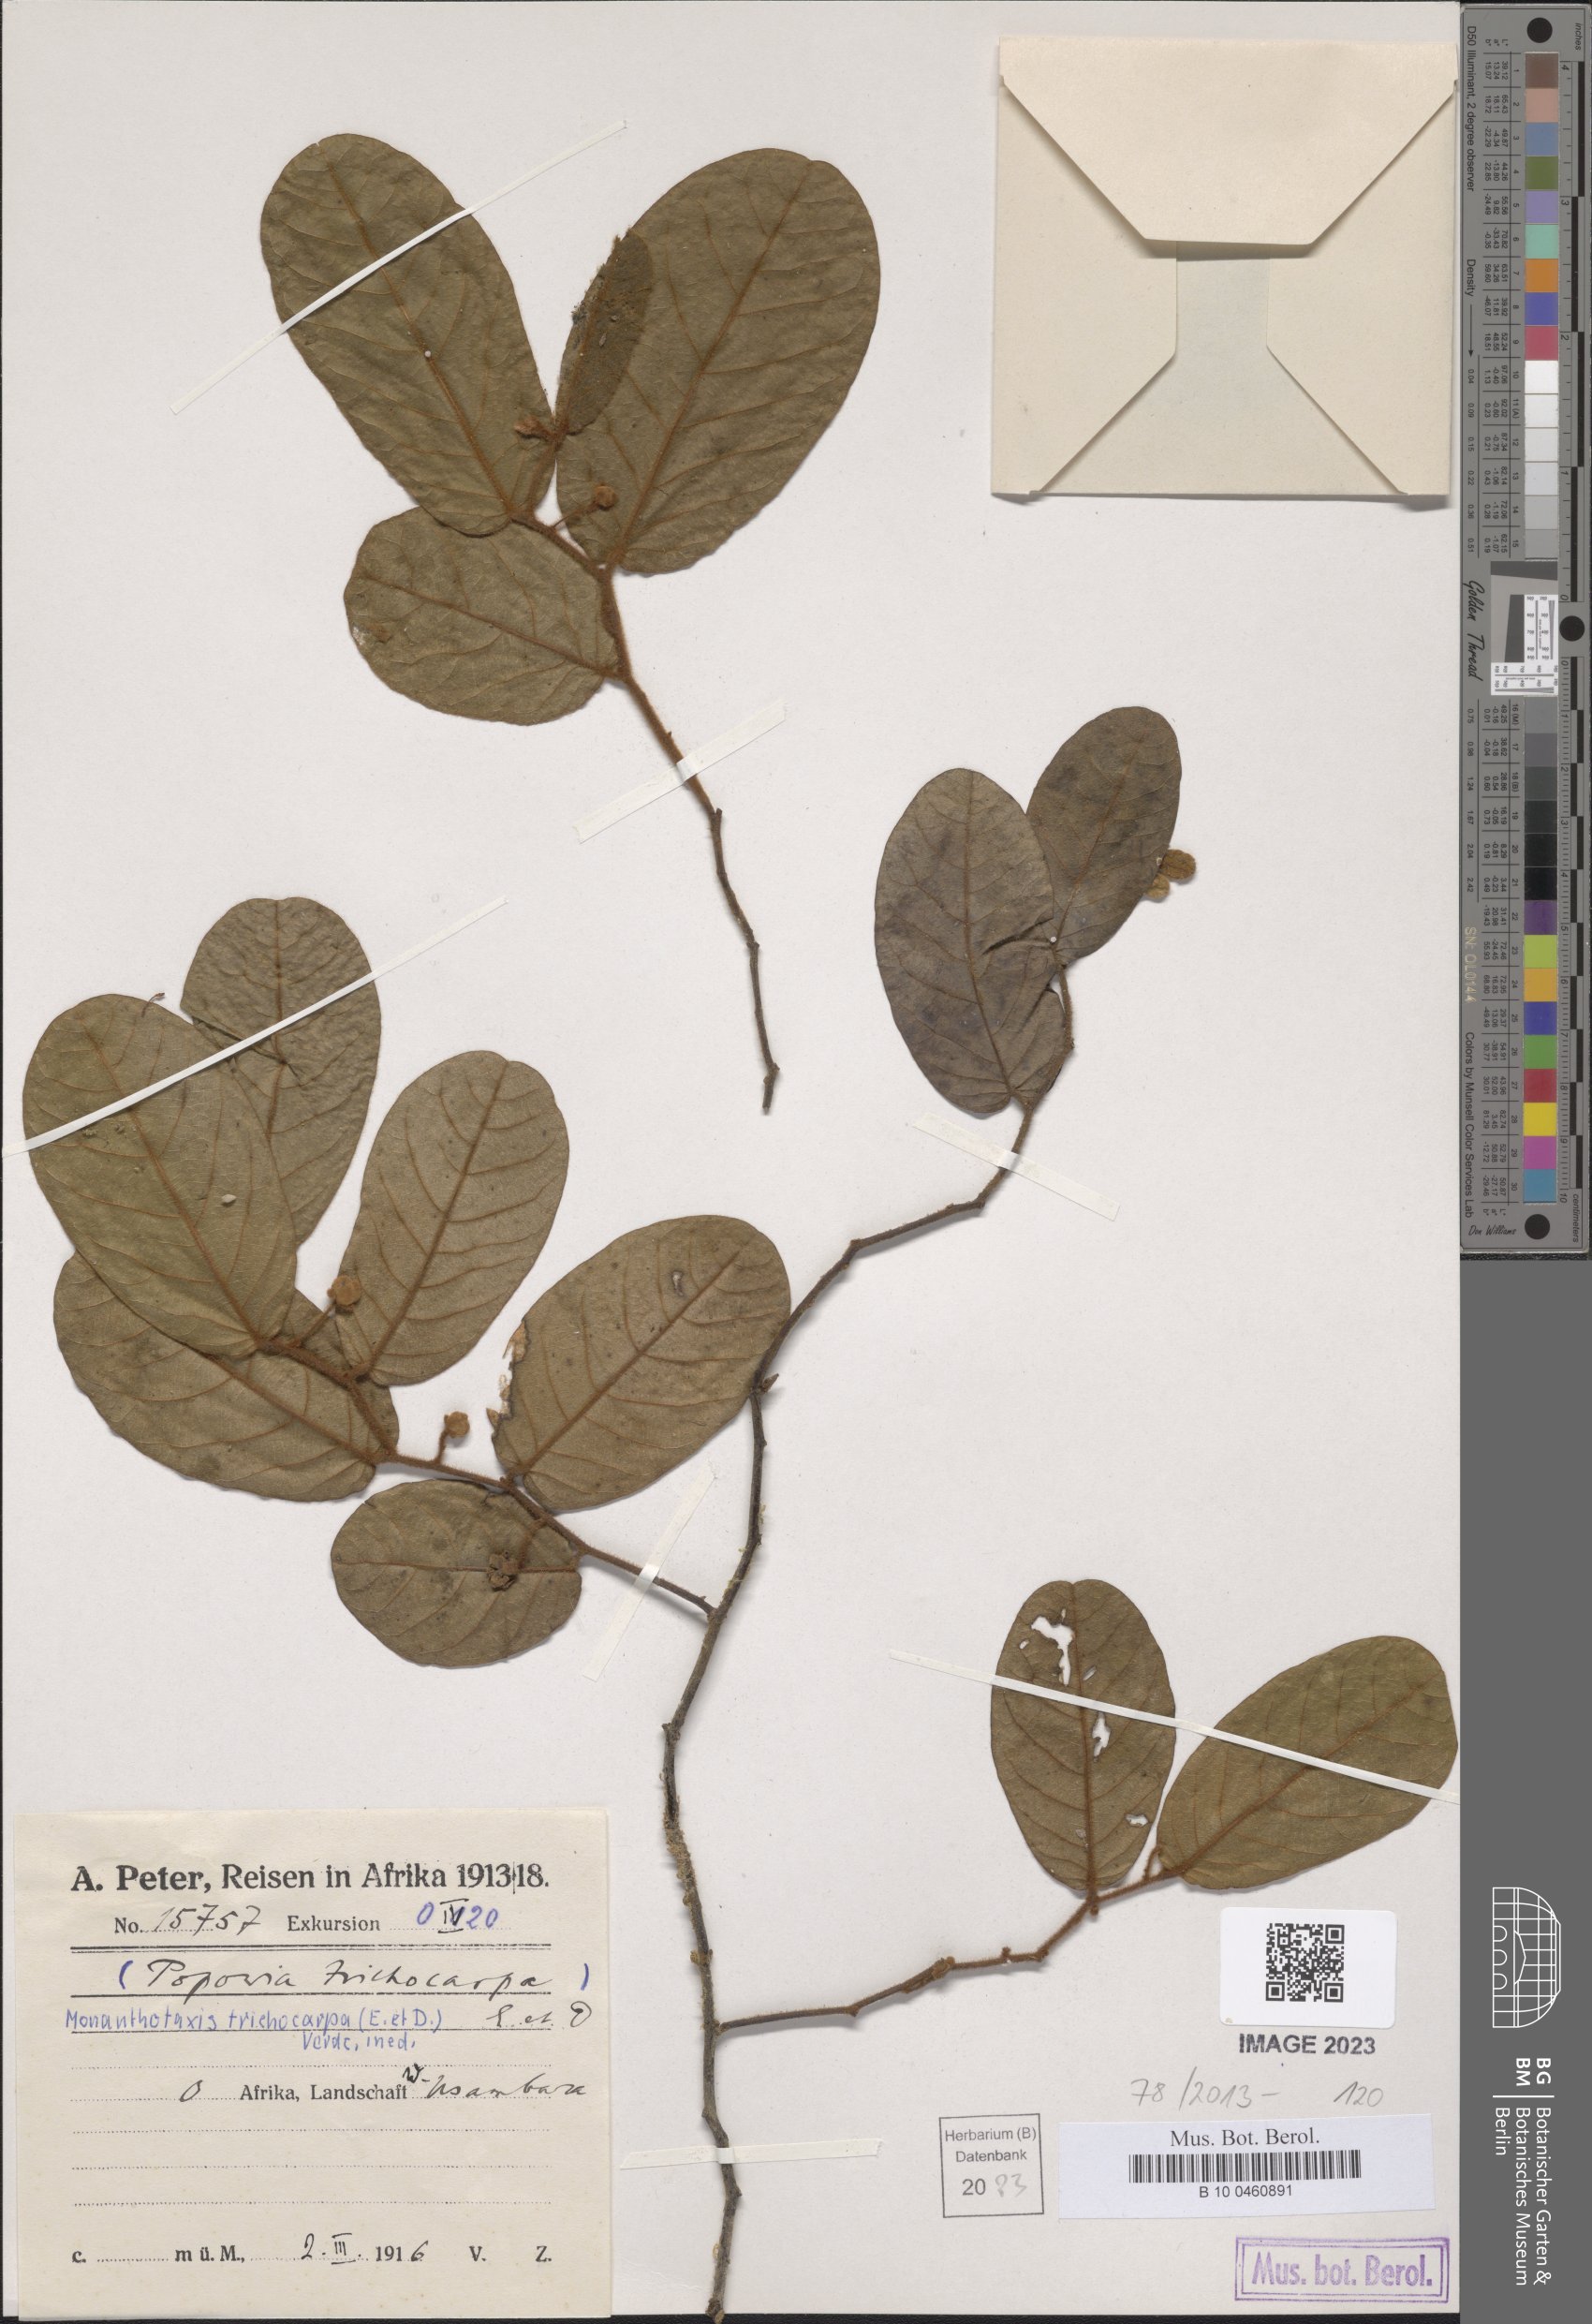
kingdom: Plantae
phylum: Tracheophyta
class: Magnoliopsida
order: Magnoliales
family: Annonaceae
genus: Monanthotaxis
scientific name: Monanthotaxis trichocarpa
